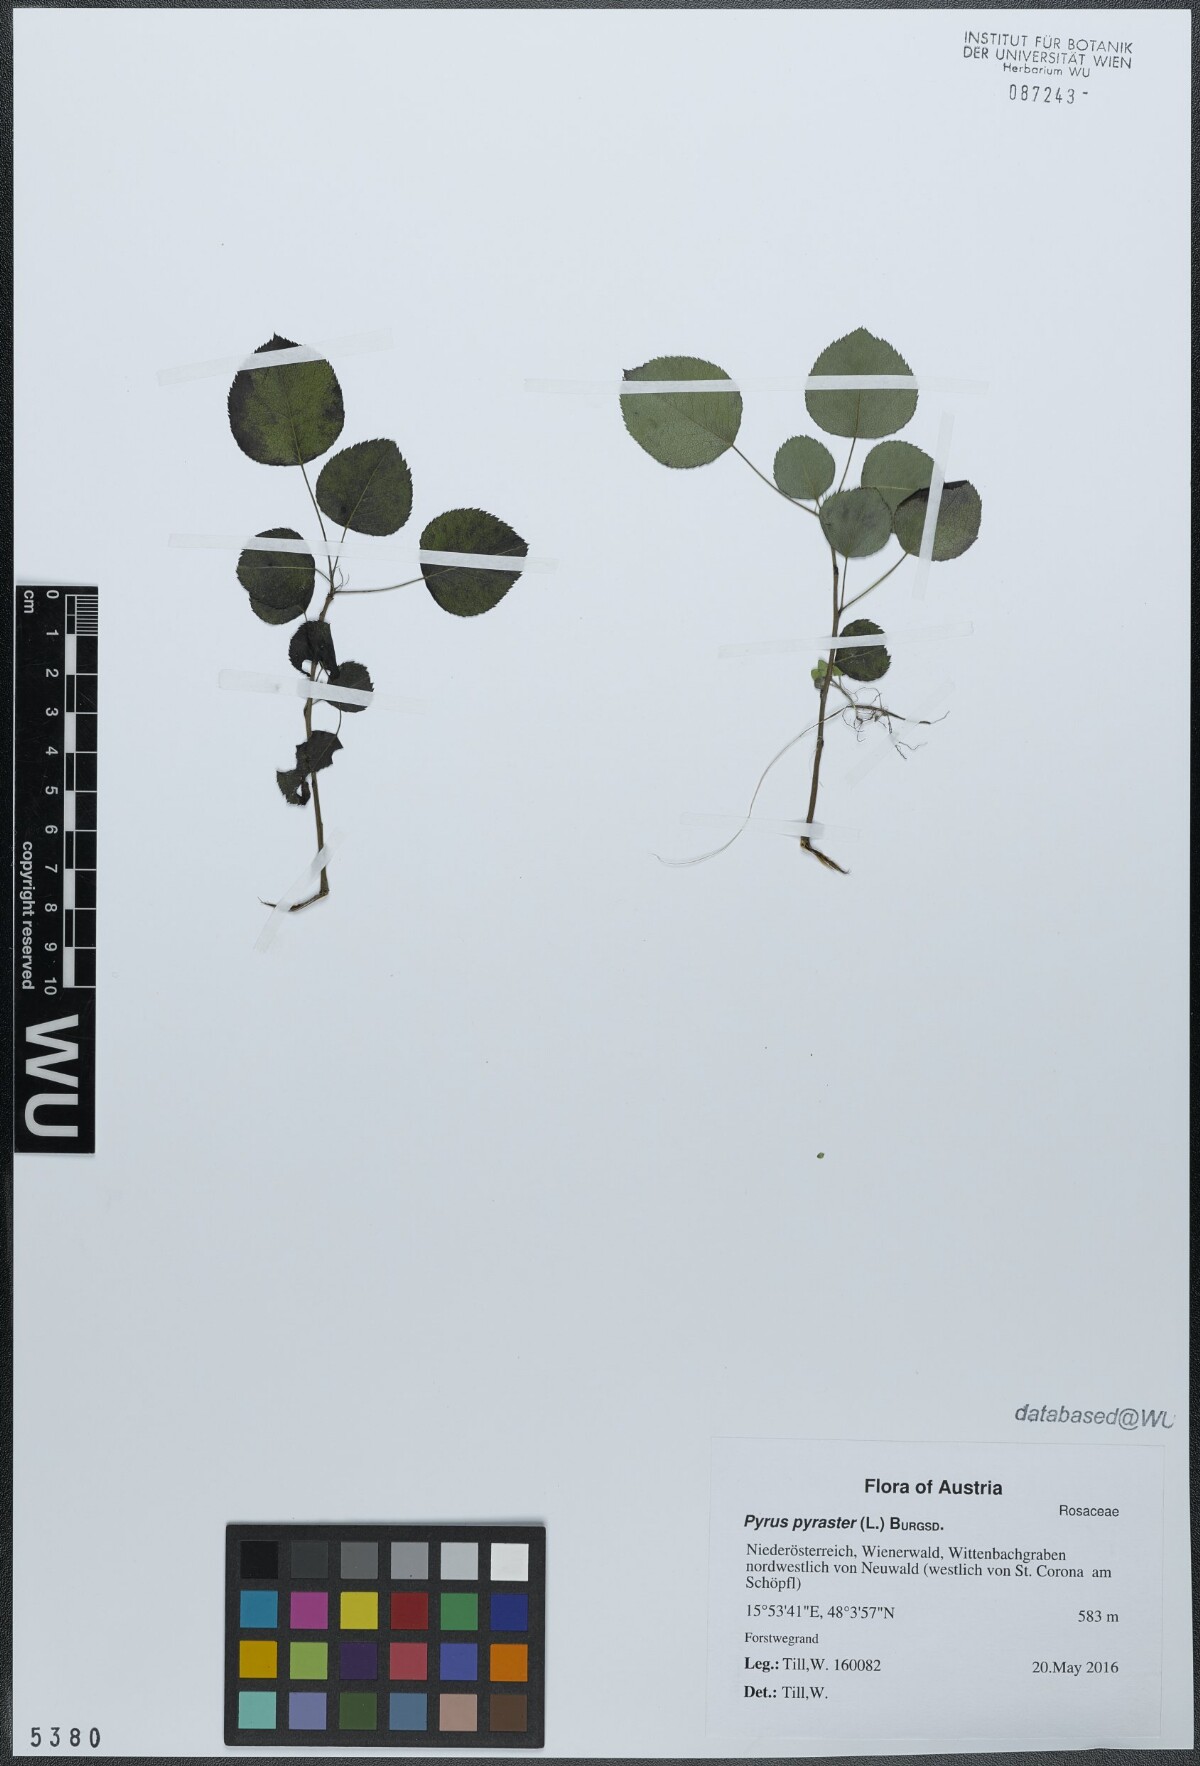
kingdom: Plantae
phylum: Tracheophyta
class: Magnoliopsida
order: Rosales
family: Rosaceae
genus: Pyrus
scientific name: Pyrus pyraster
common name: Wild pear
